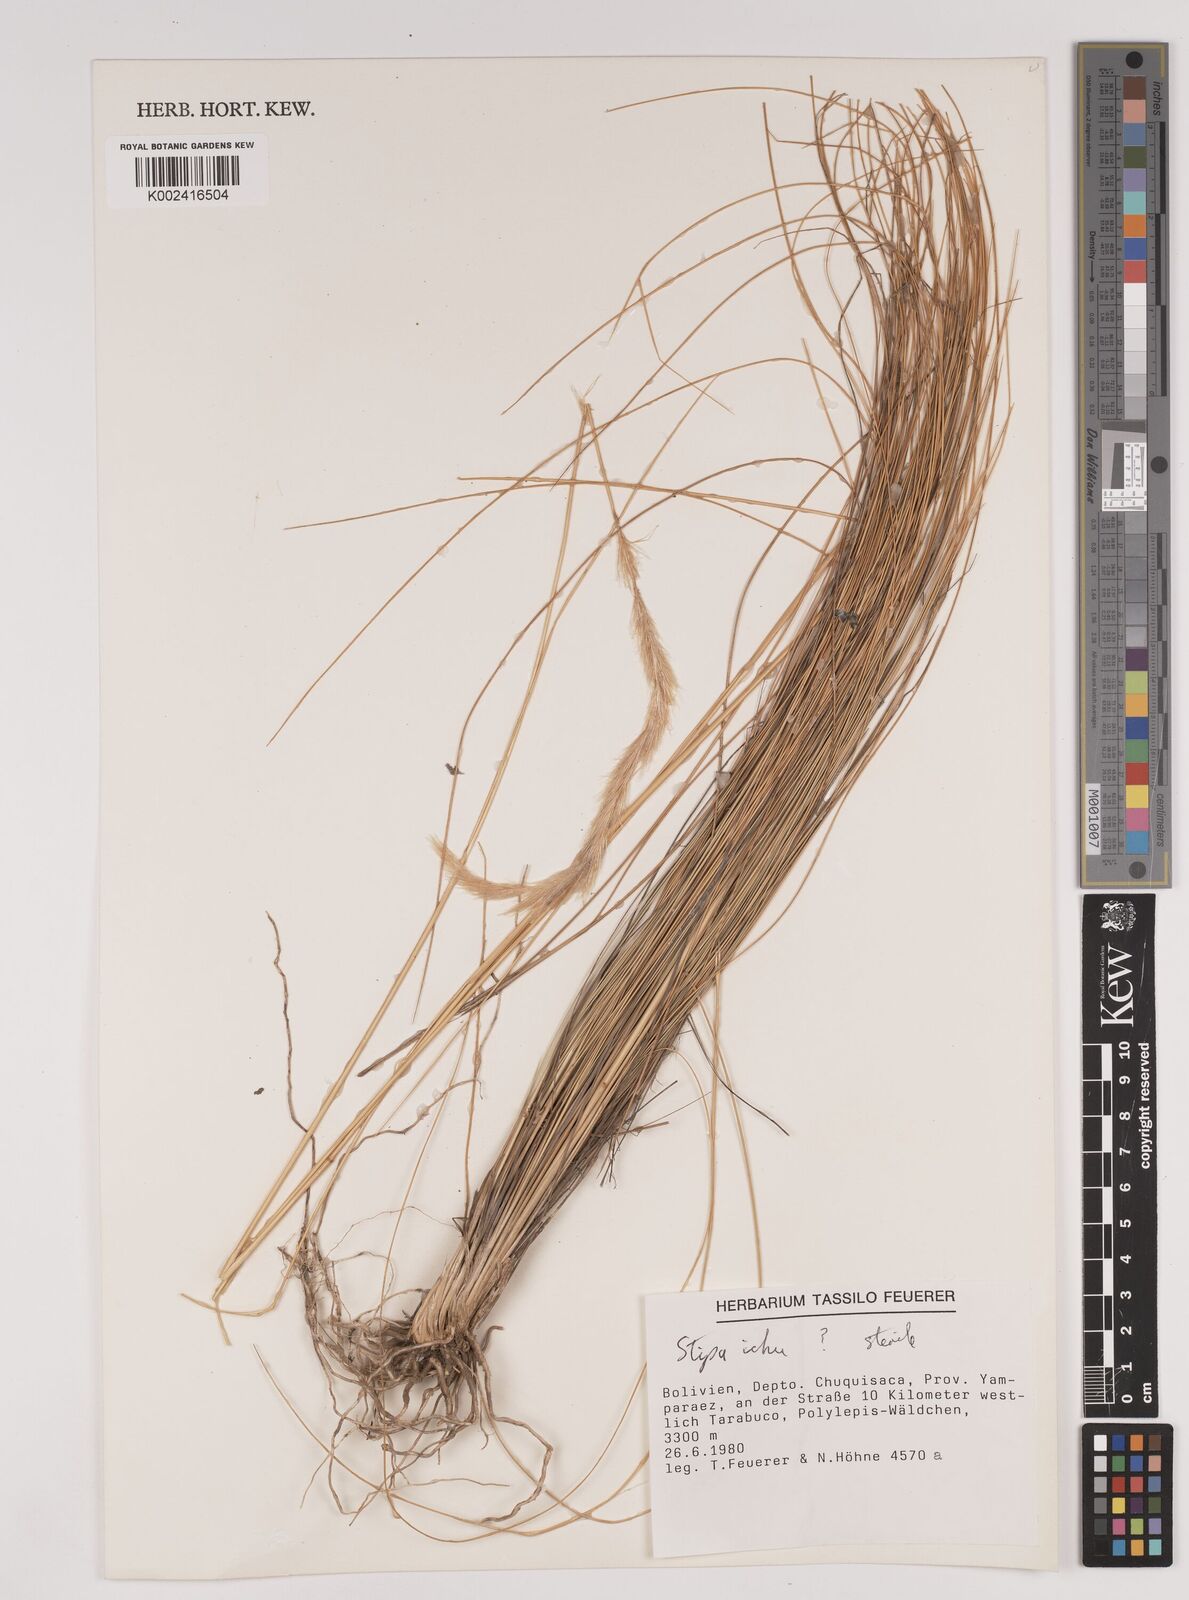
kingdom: Plantae
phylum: Tracheophyta
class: Liliopsida
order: Poales
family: Poaceae
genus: Jarava
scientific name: Jarava ichu
